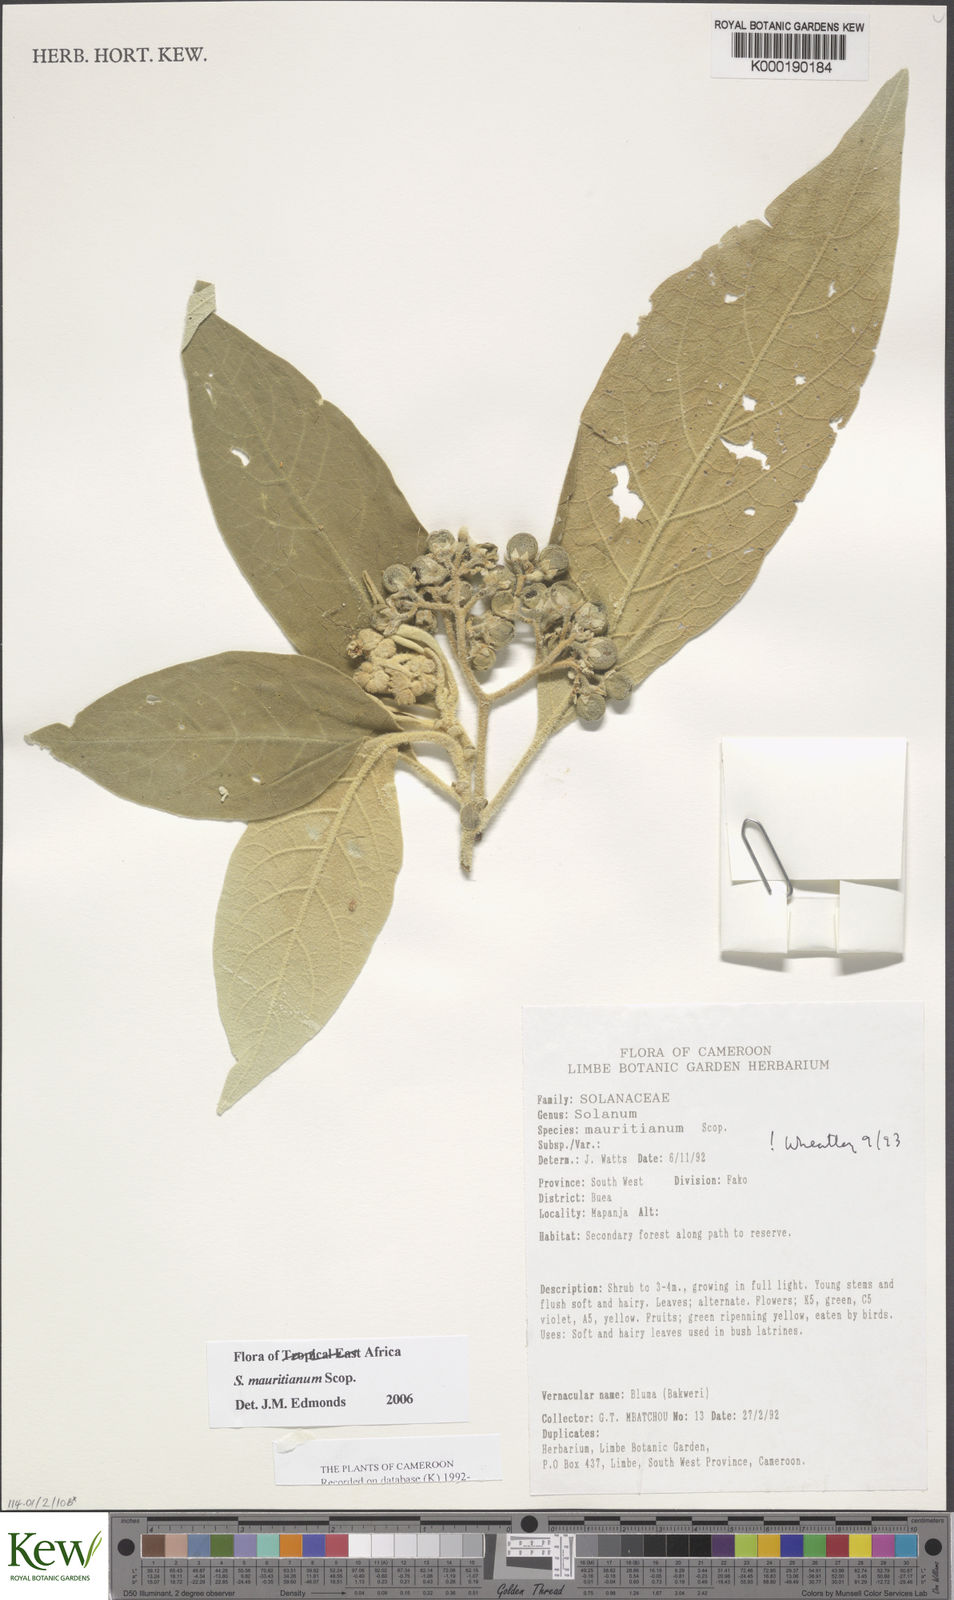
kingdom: Plantae
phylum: Tracheophyta
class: Magnoliopsida
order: Solanales
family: Solanaceae
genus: Solanum
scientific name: Solanum mauritianum
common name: Earleaf nightshade
